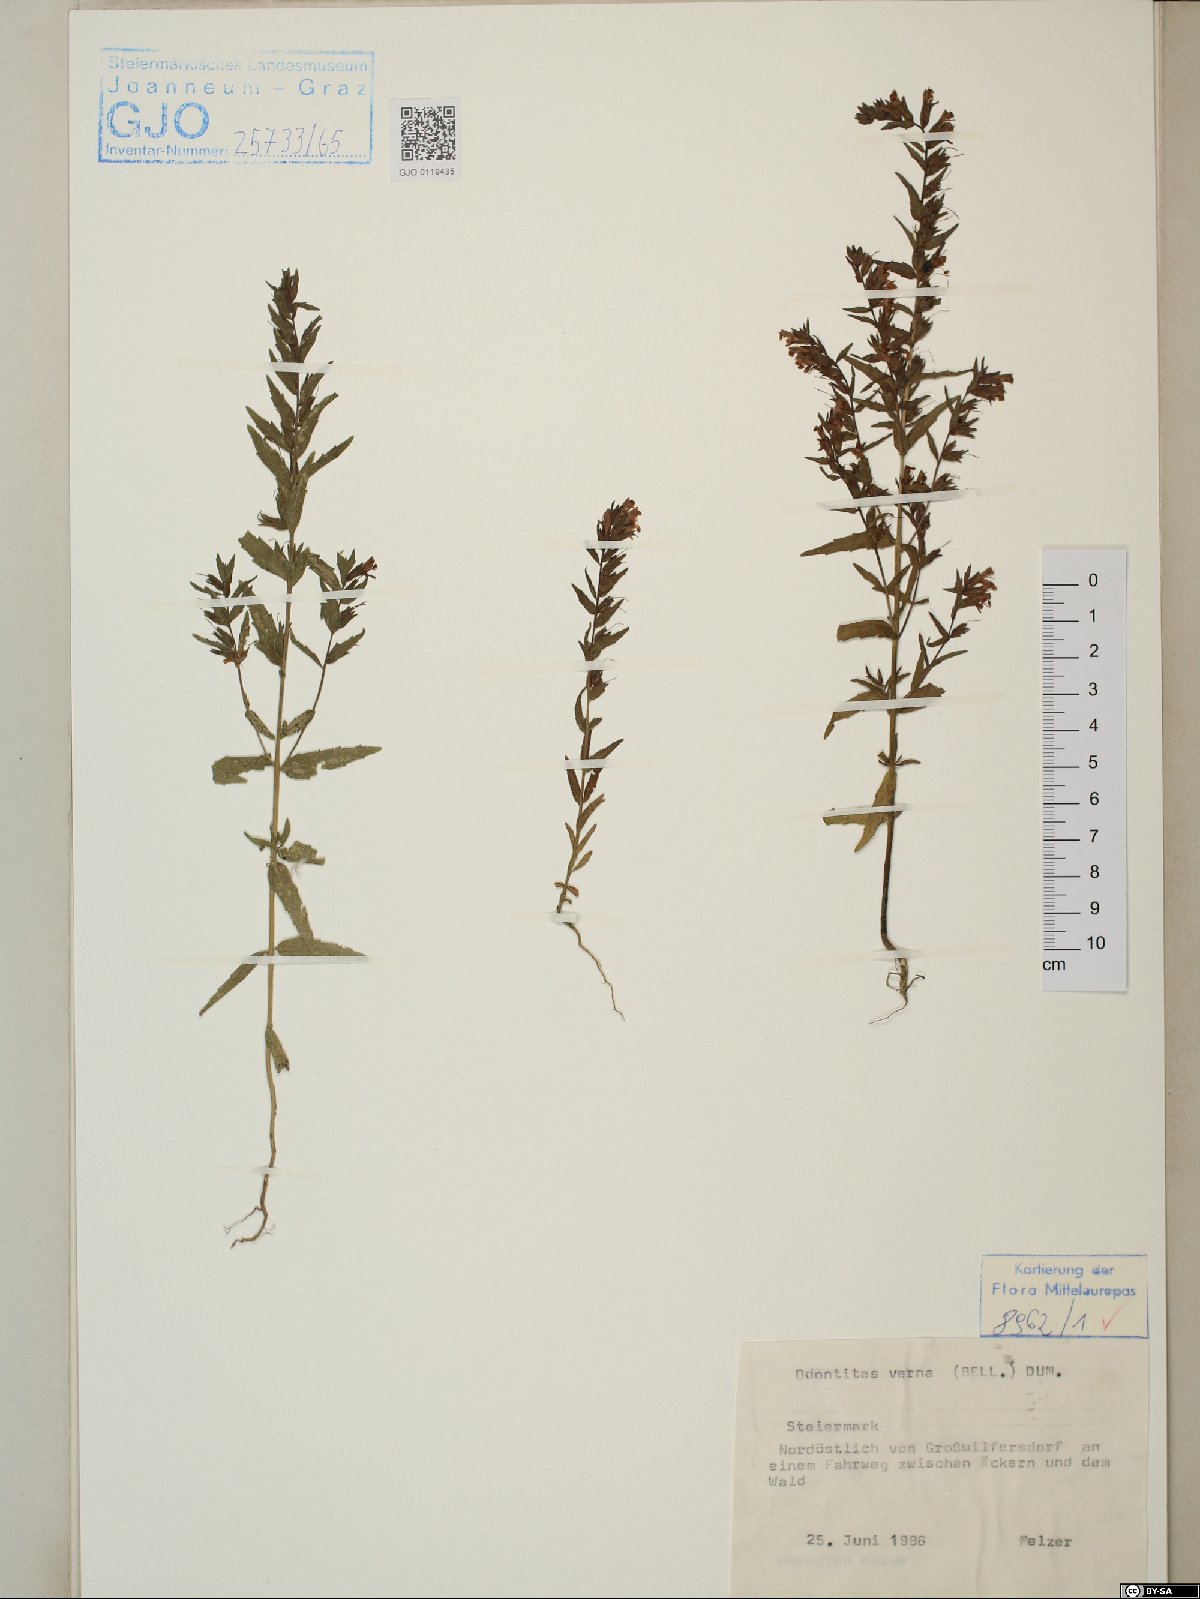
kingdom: Plantae
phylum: Tracheophyta
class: Magnoliopsida
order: Lamiales
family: Orobanchaceae
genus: Odontites
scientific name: Odontites vernus
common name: Red bartsia
